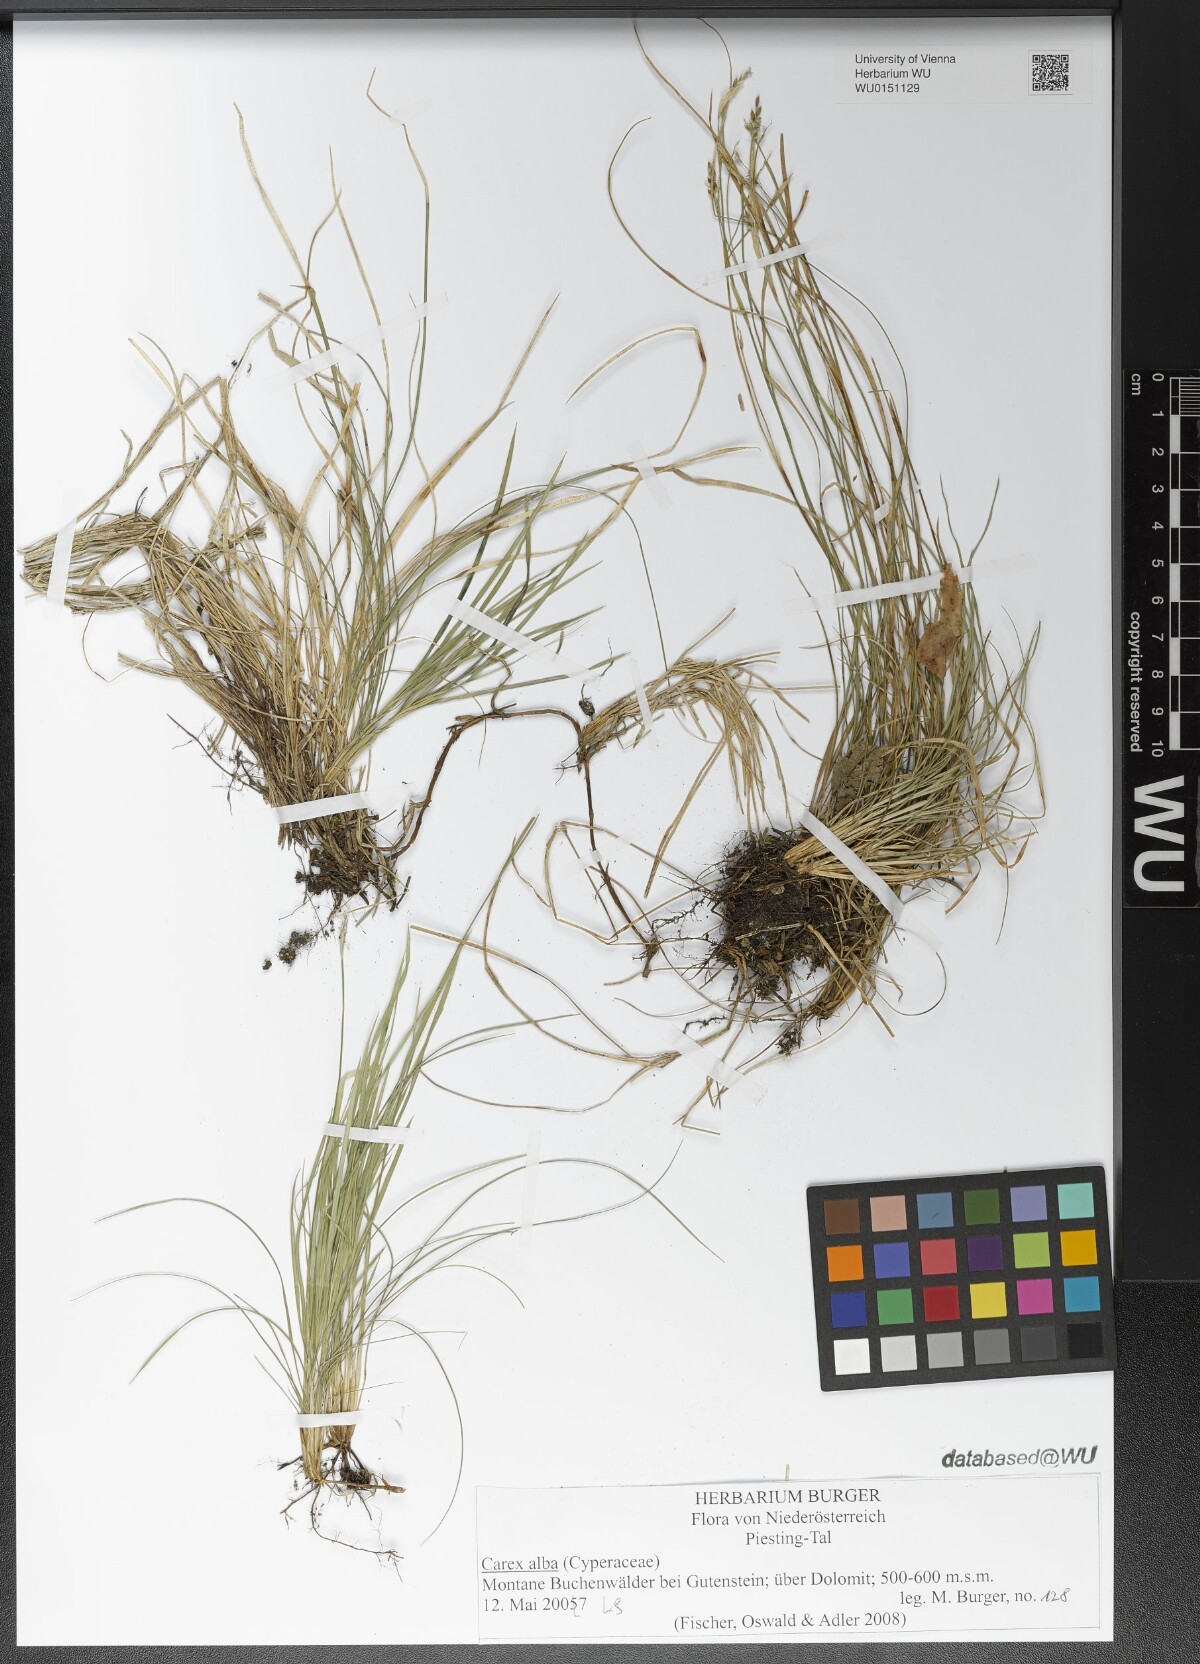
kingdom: Plantae
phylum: Tracheophyta
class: Liliopsida
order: Poales
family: Cyperaceae
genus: Carex
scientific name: Carex alba
